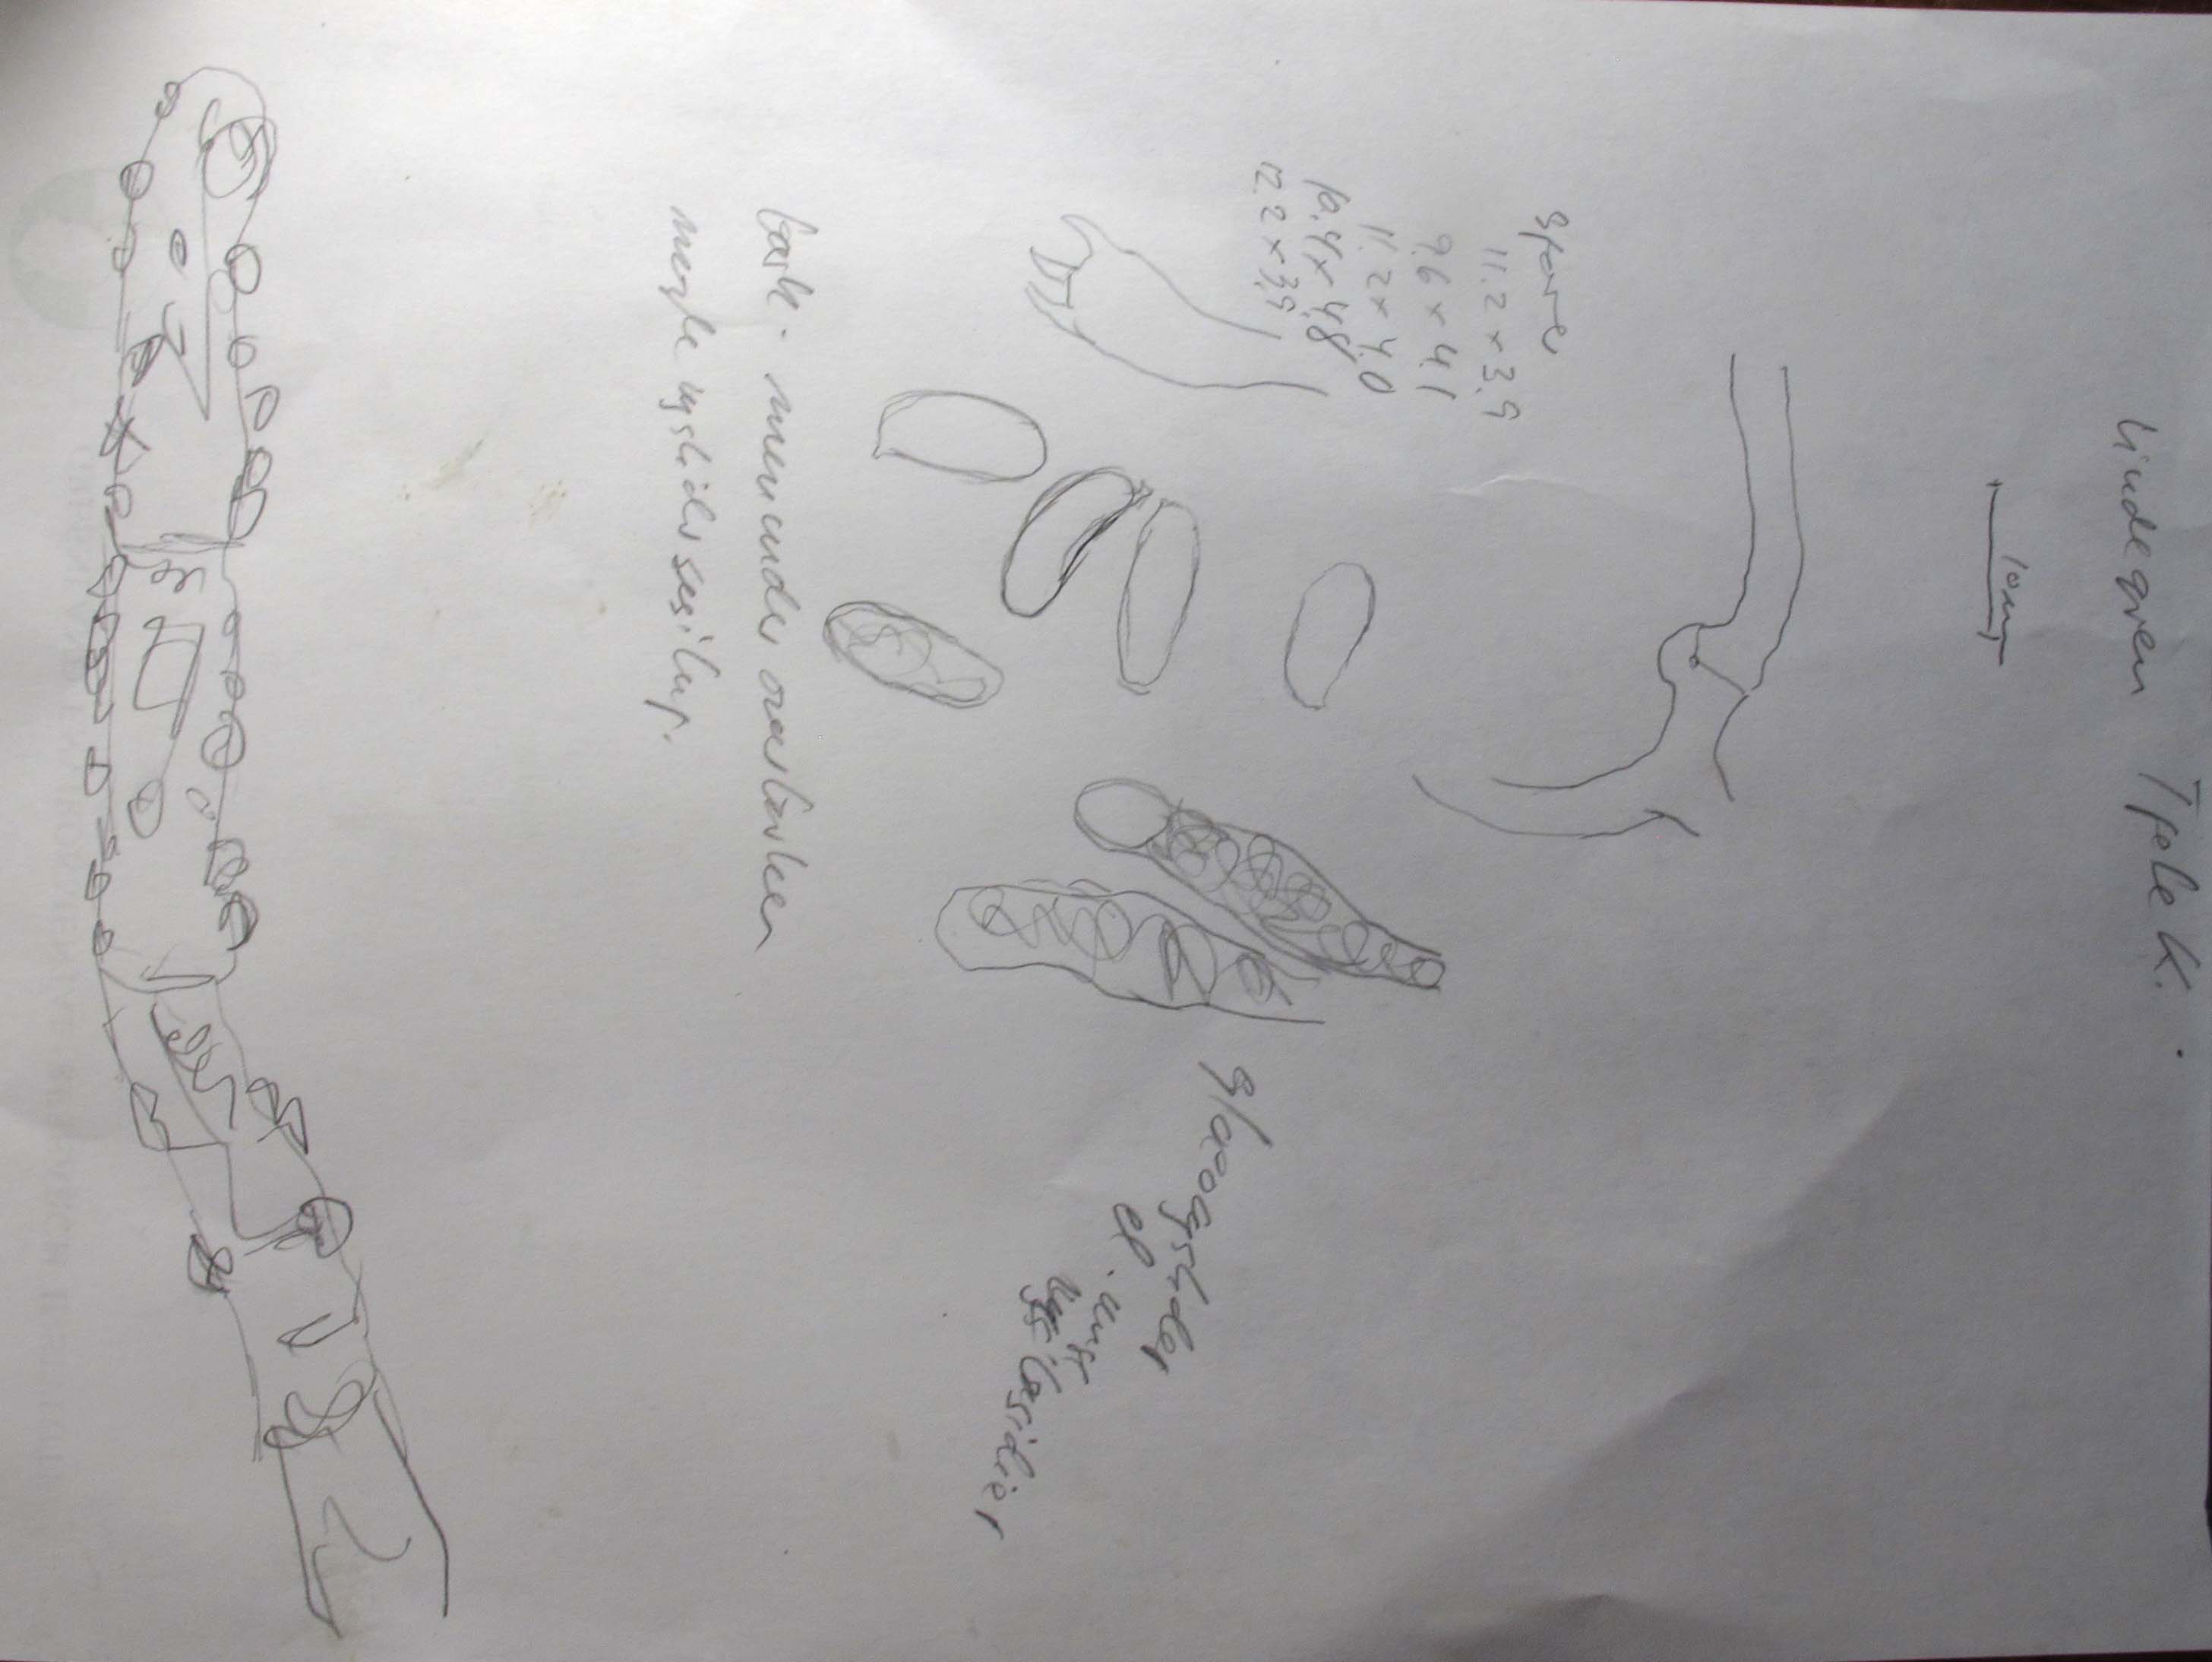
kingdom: Fungi
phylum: Basidiomycota
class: Agaricomycetes
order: Polyporales
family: Hyphodermataceae
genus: Hyphoderma
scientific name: Hyphoderma setigerum
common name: håret kalkskind
